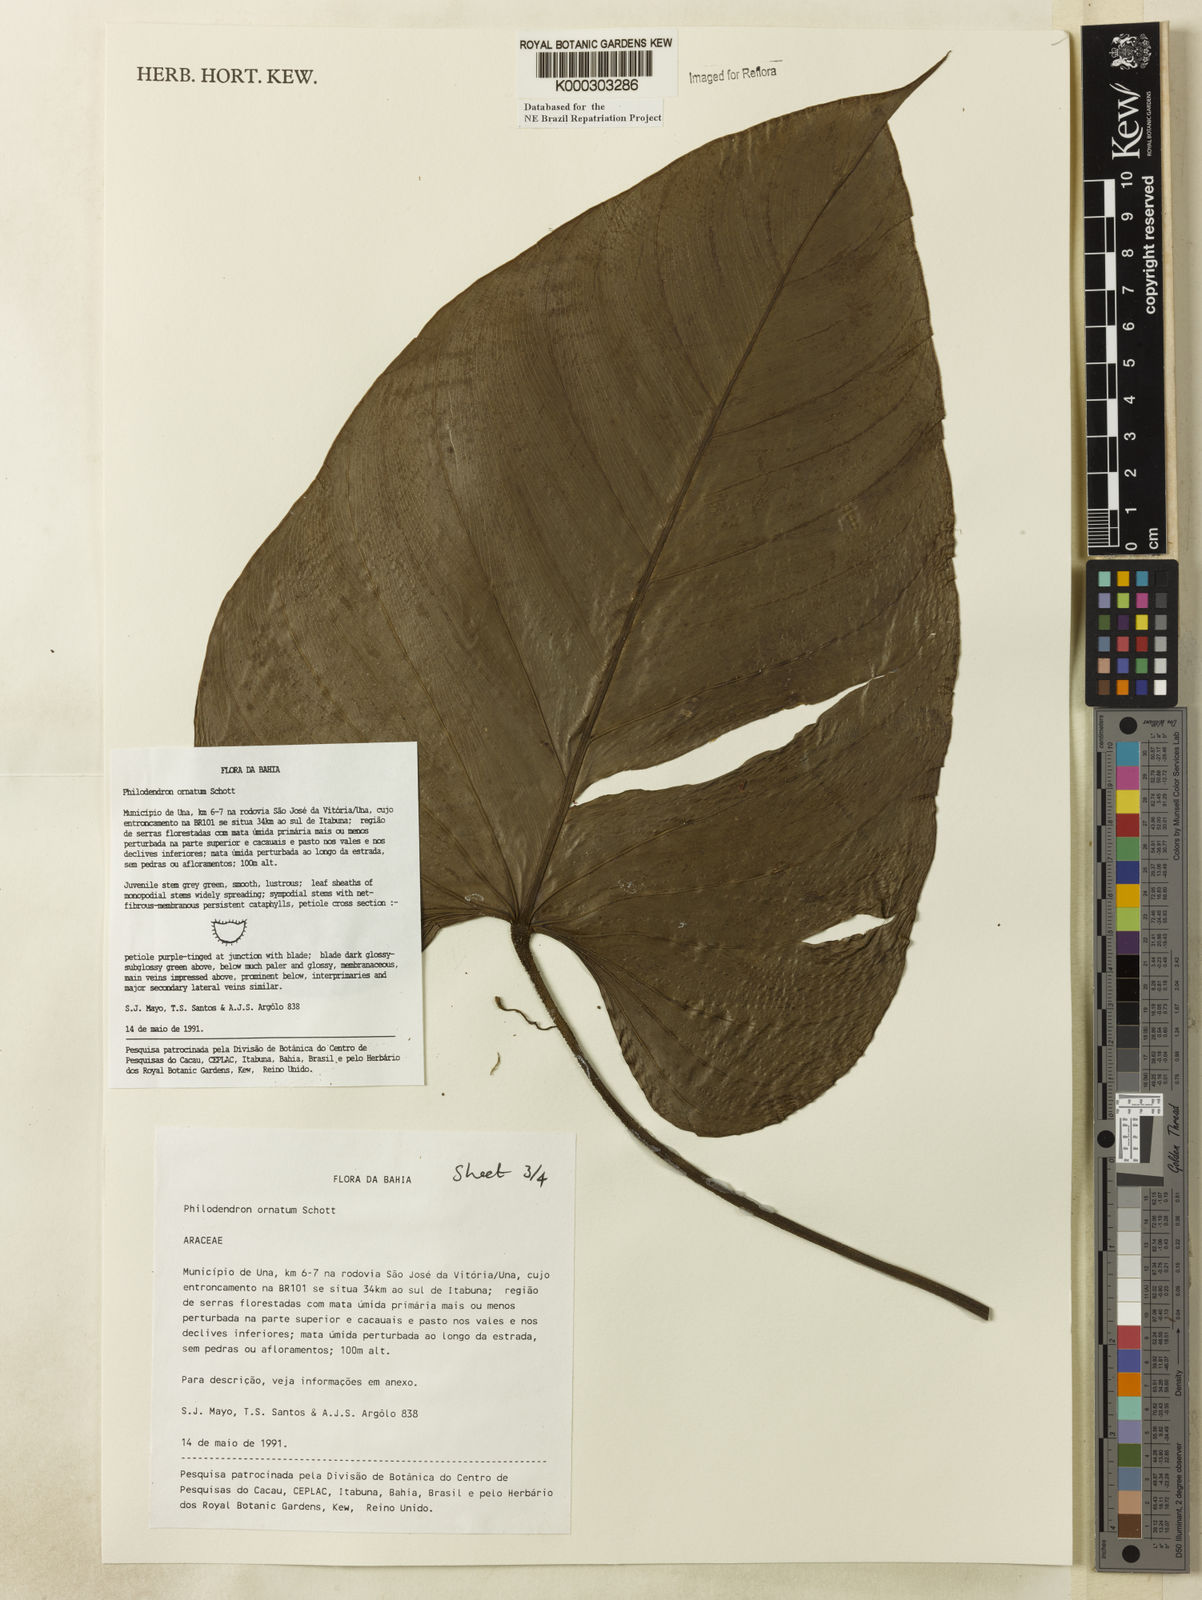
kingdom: Plantae
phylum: Tracheophyta
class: Liliopsida
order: Alismatales
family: Araceae
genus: Philodendron
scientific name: Philodendron ornatum
